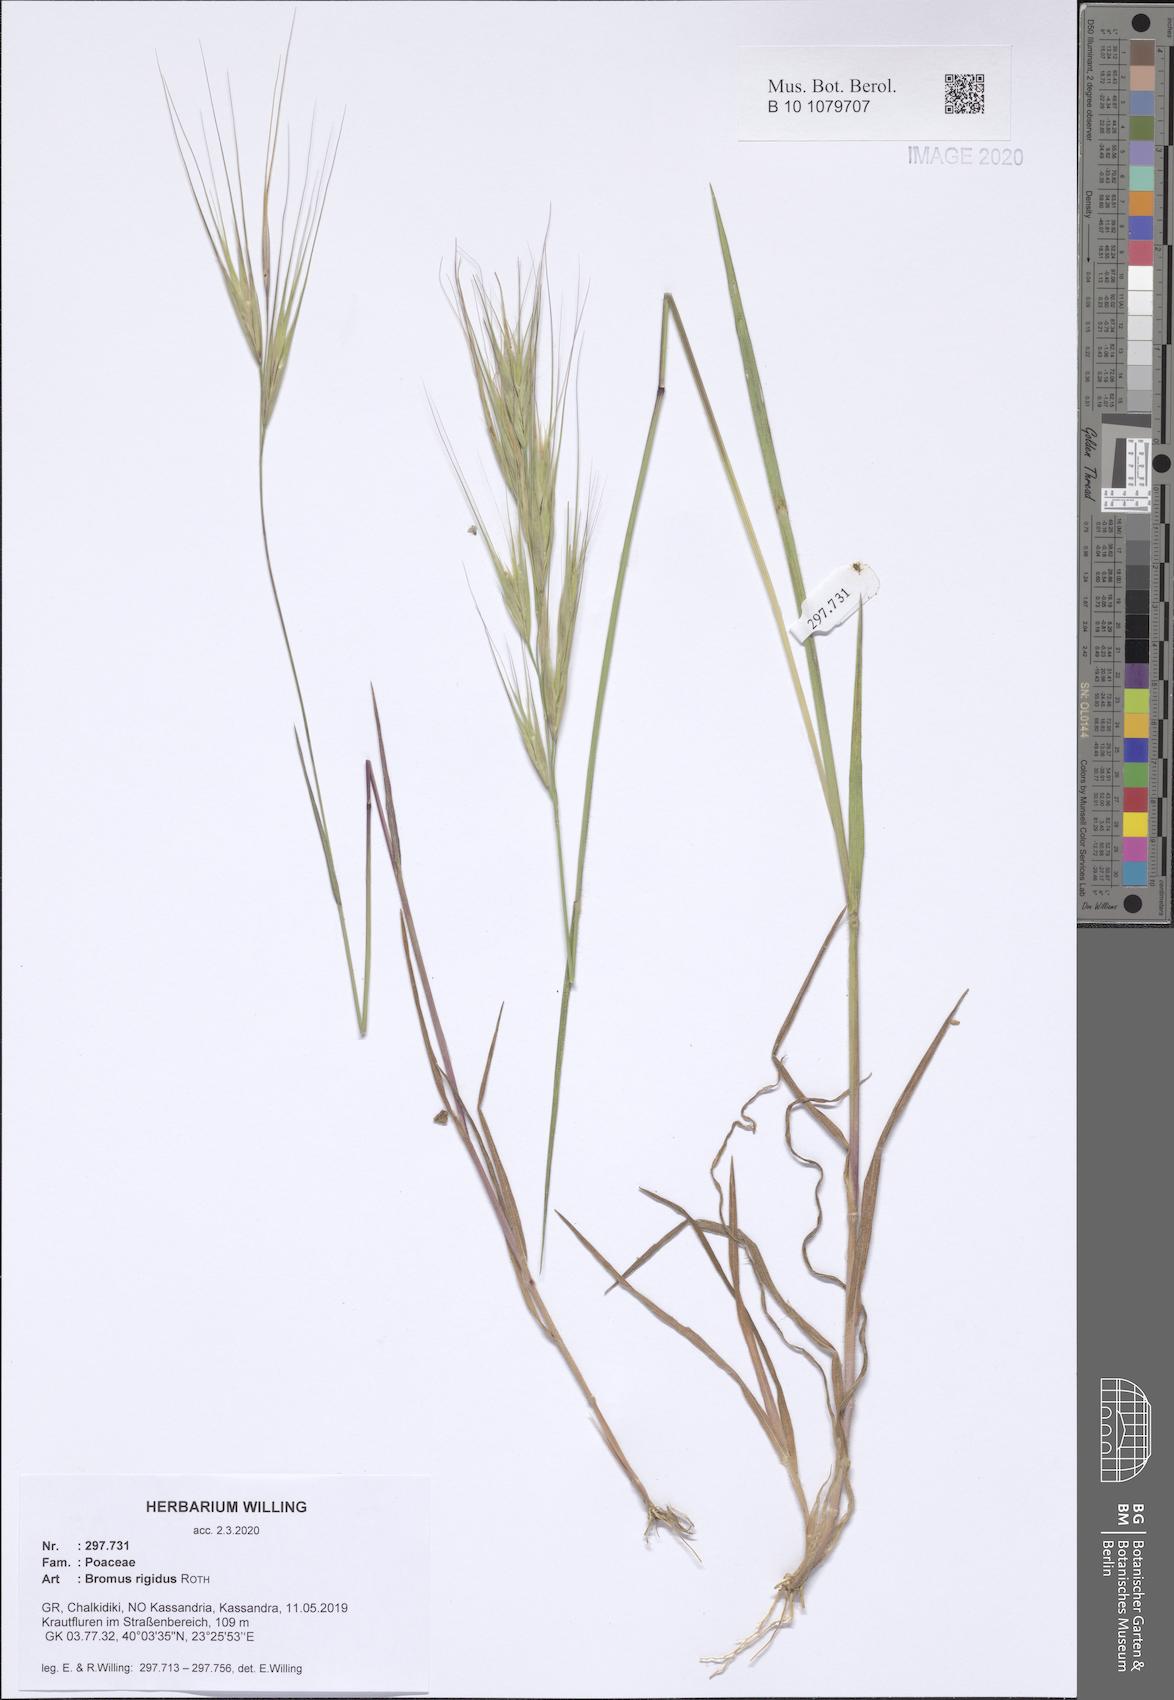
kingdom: Plantae
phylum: Tracheophyta
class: Liliopsida
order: Poales
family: Poaceae
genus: Bromus
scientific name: Bromus rigidus
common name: Ripgut brome
